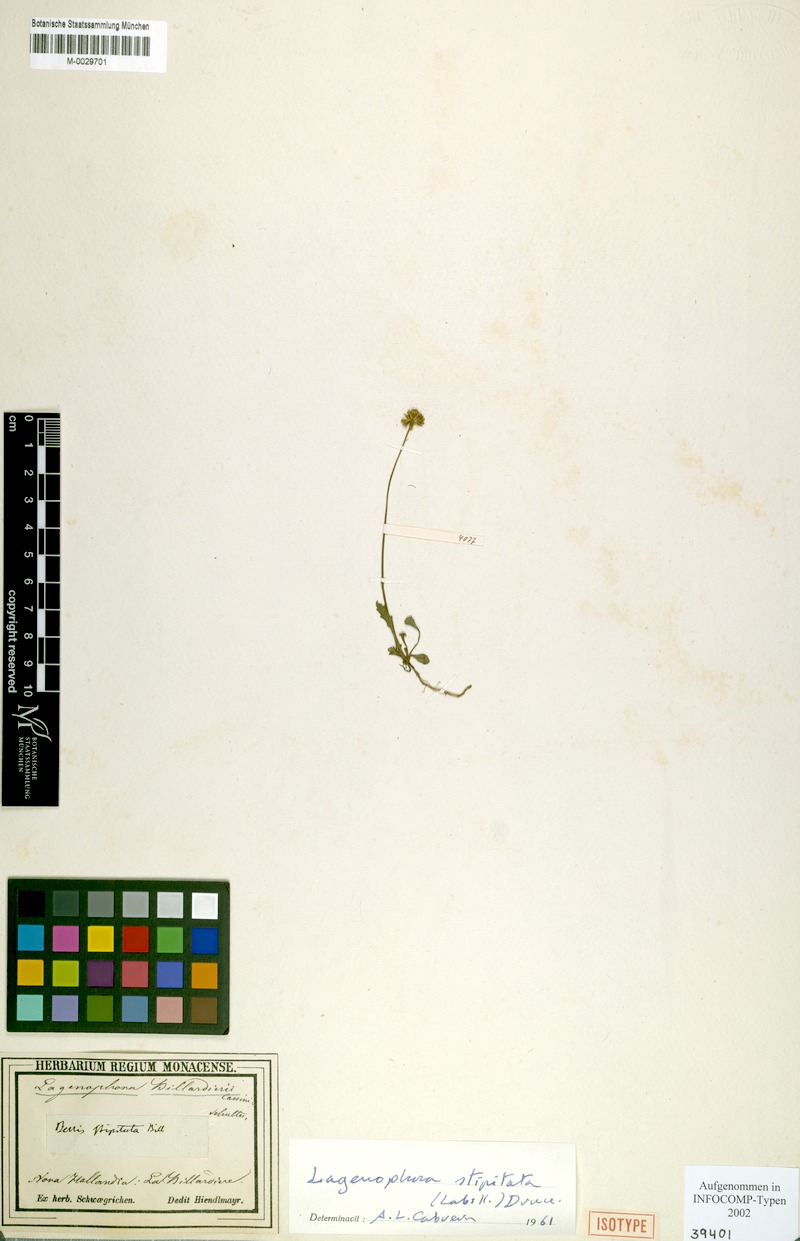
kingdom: Plantae
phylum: Tracheophyta
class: Magnoliopsida
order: Asterales
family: Asteraceae
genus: Lagenophora
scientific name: Lagenophora stipitata
